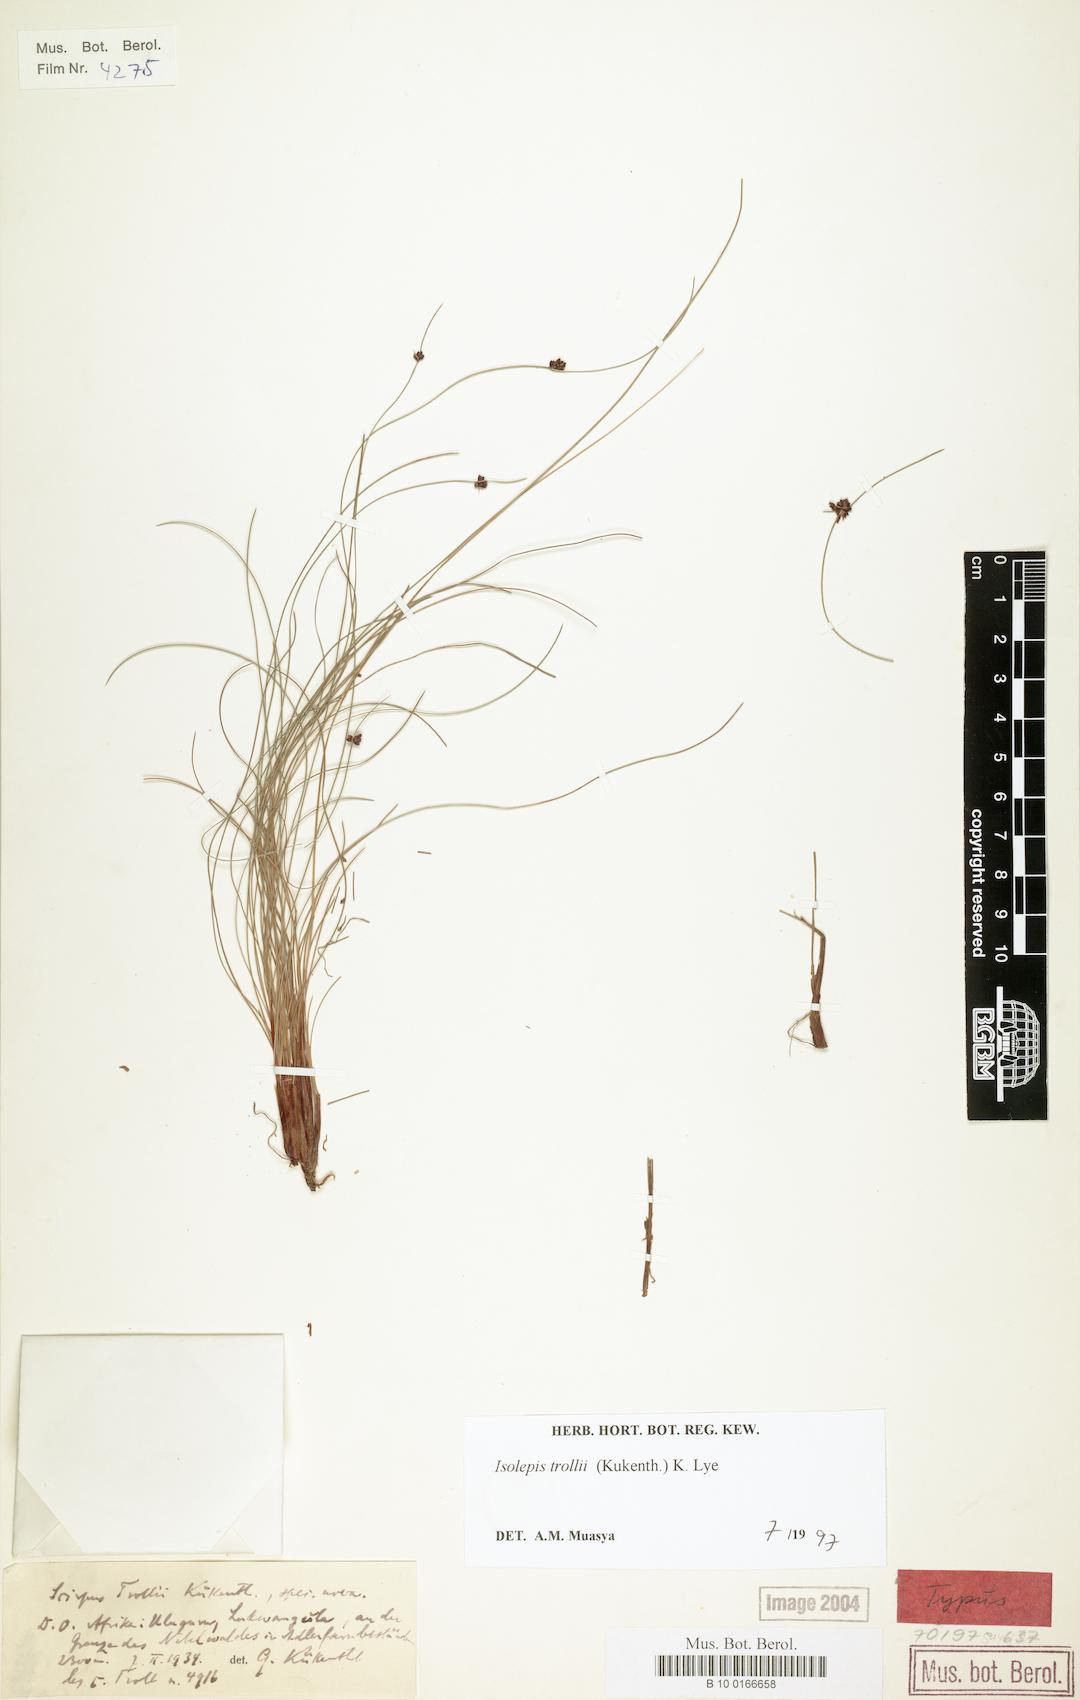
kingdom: Plantae
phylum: Tracheophyta
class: Liliopsida
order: Poales
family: Cyperaceae
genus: Ficinia
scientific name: Ficinia trollii
